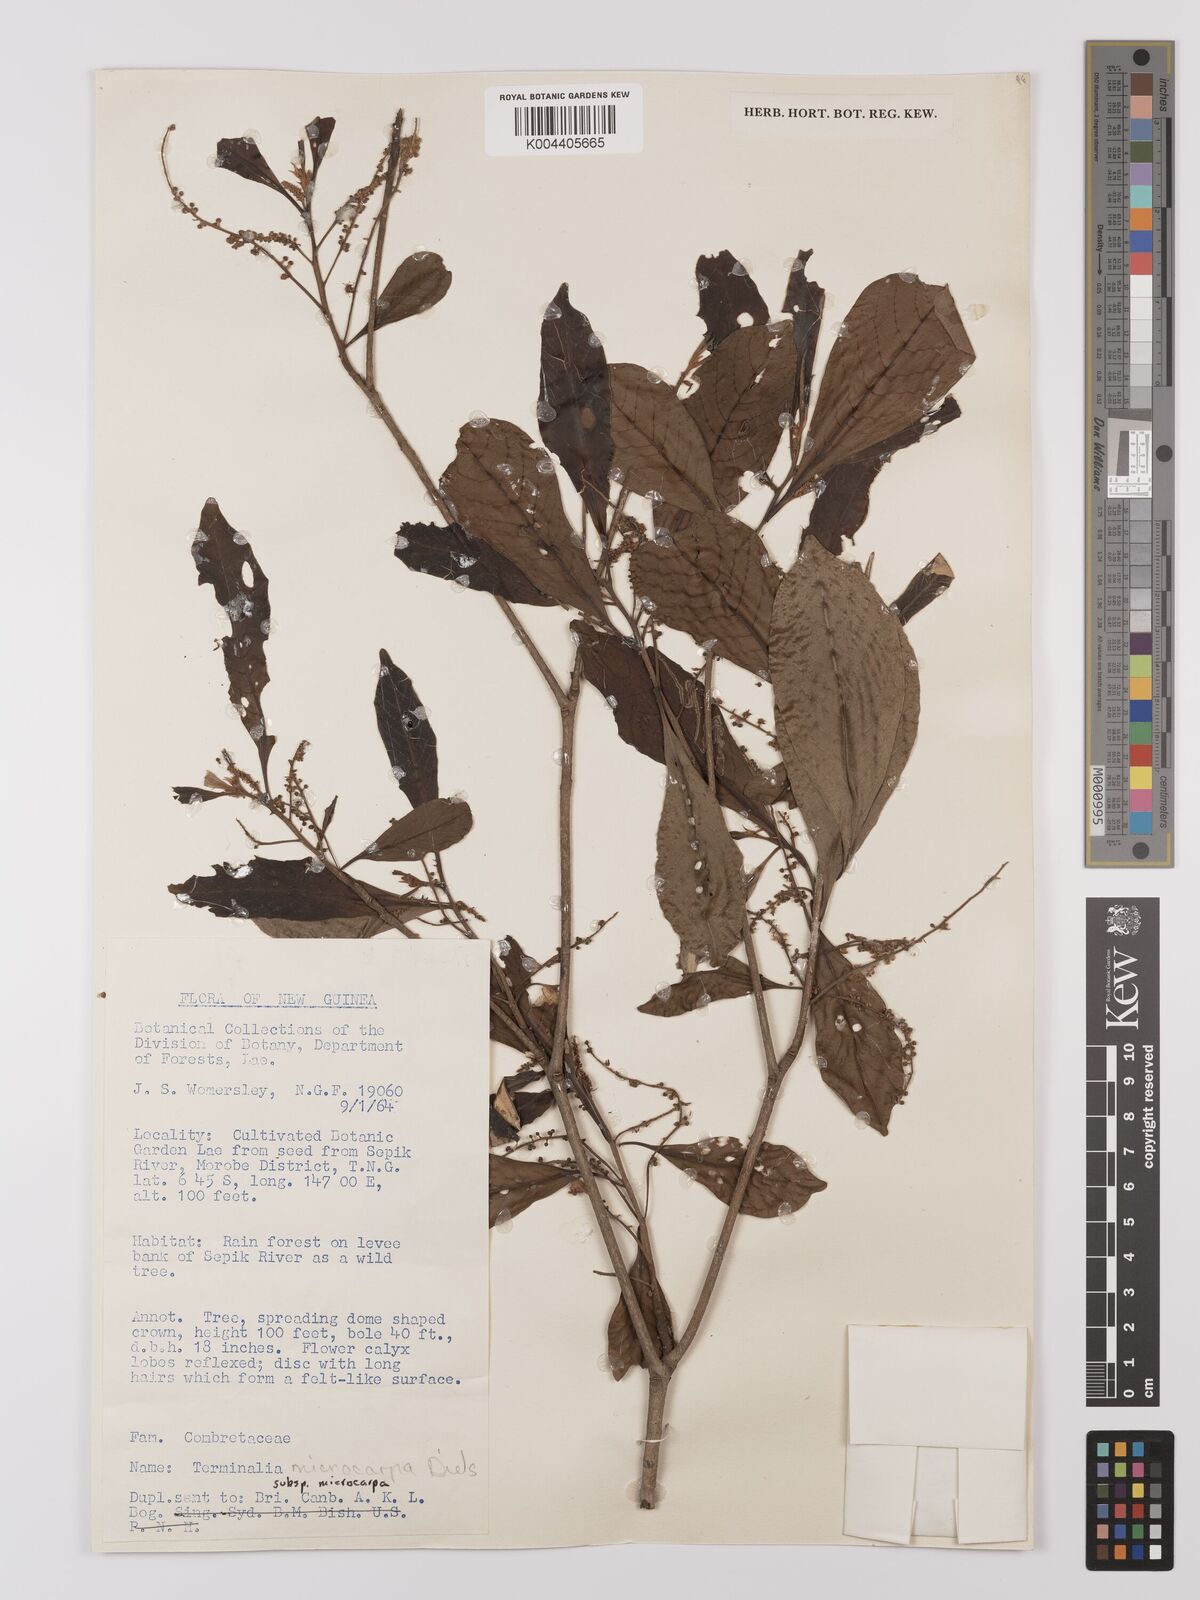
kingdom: Plantae
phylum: Tracheophyta
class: Magnoliopsida
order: Myrtales
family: Combretaceae
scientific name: Combretaceae
